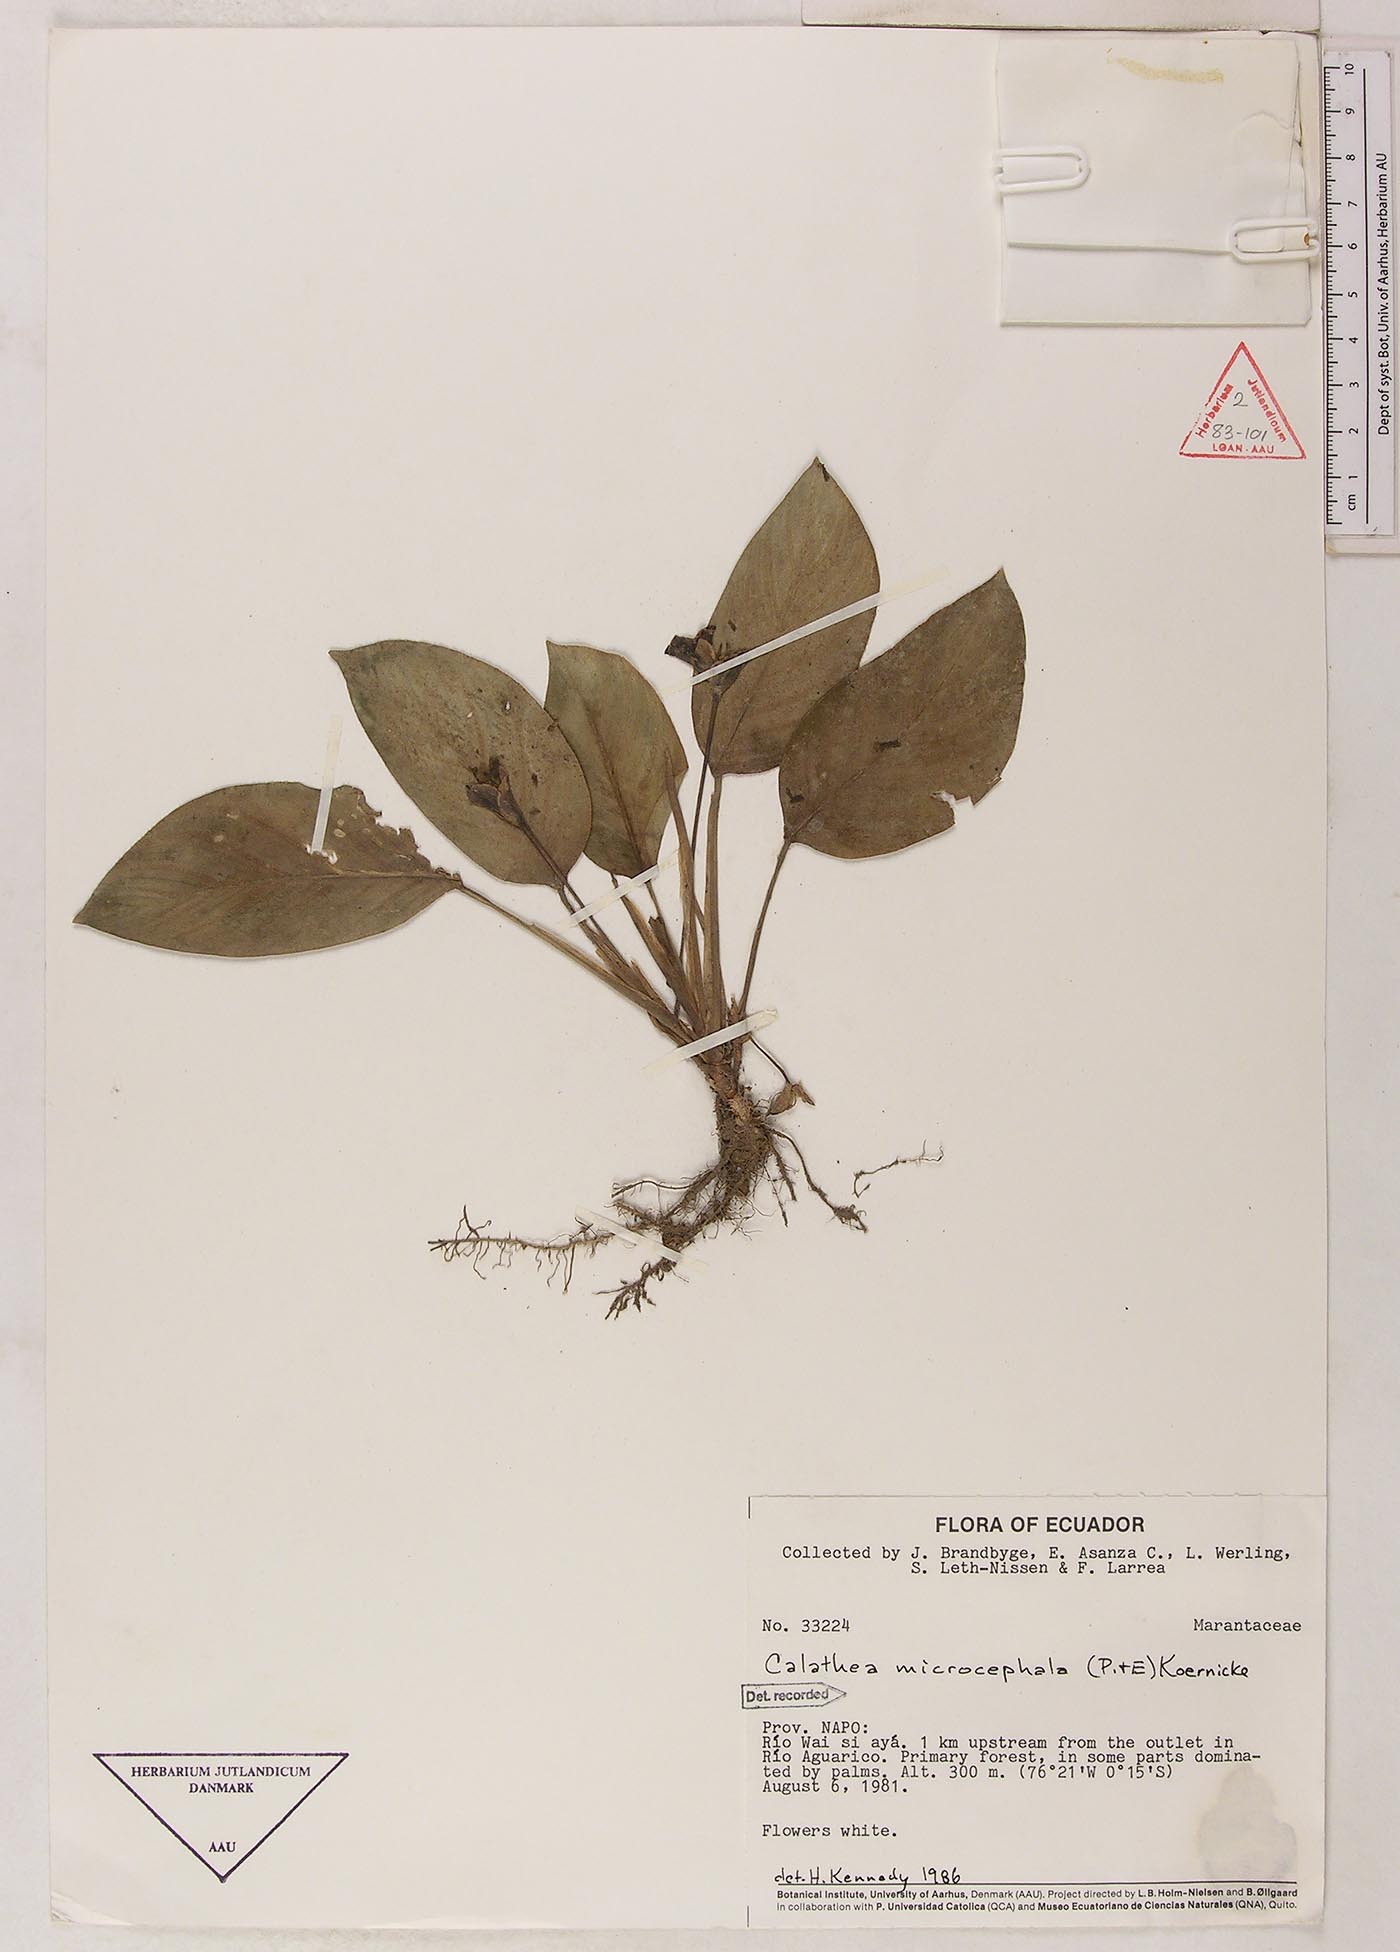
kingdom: Plantae
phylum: Tracheophyta
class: Liliopsida
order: Zingiberales
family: Marantaceae
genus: Goeppertia
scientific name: Goeppertia microcephala
